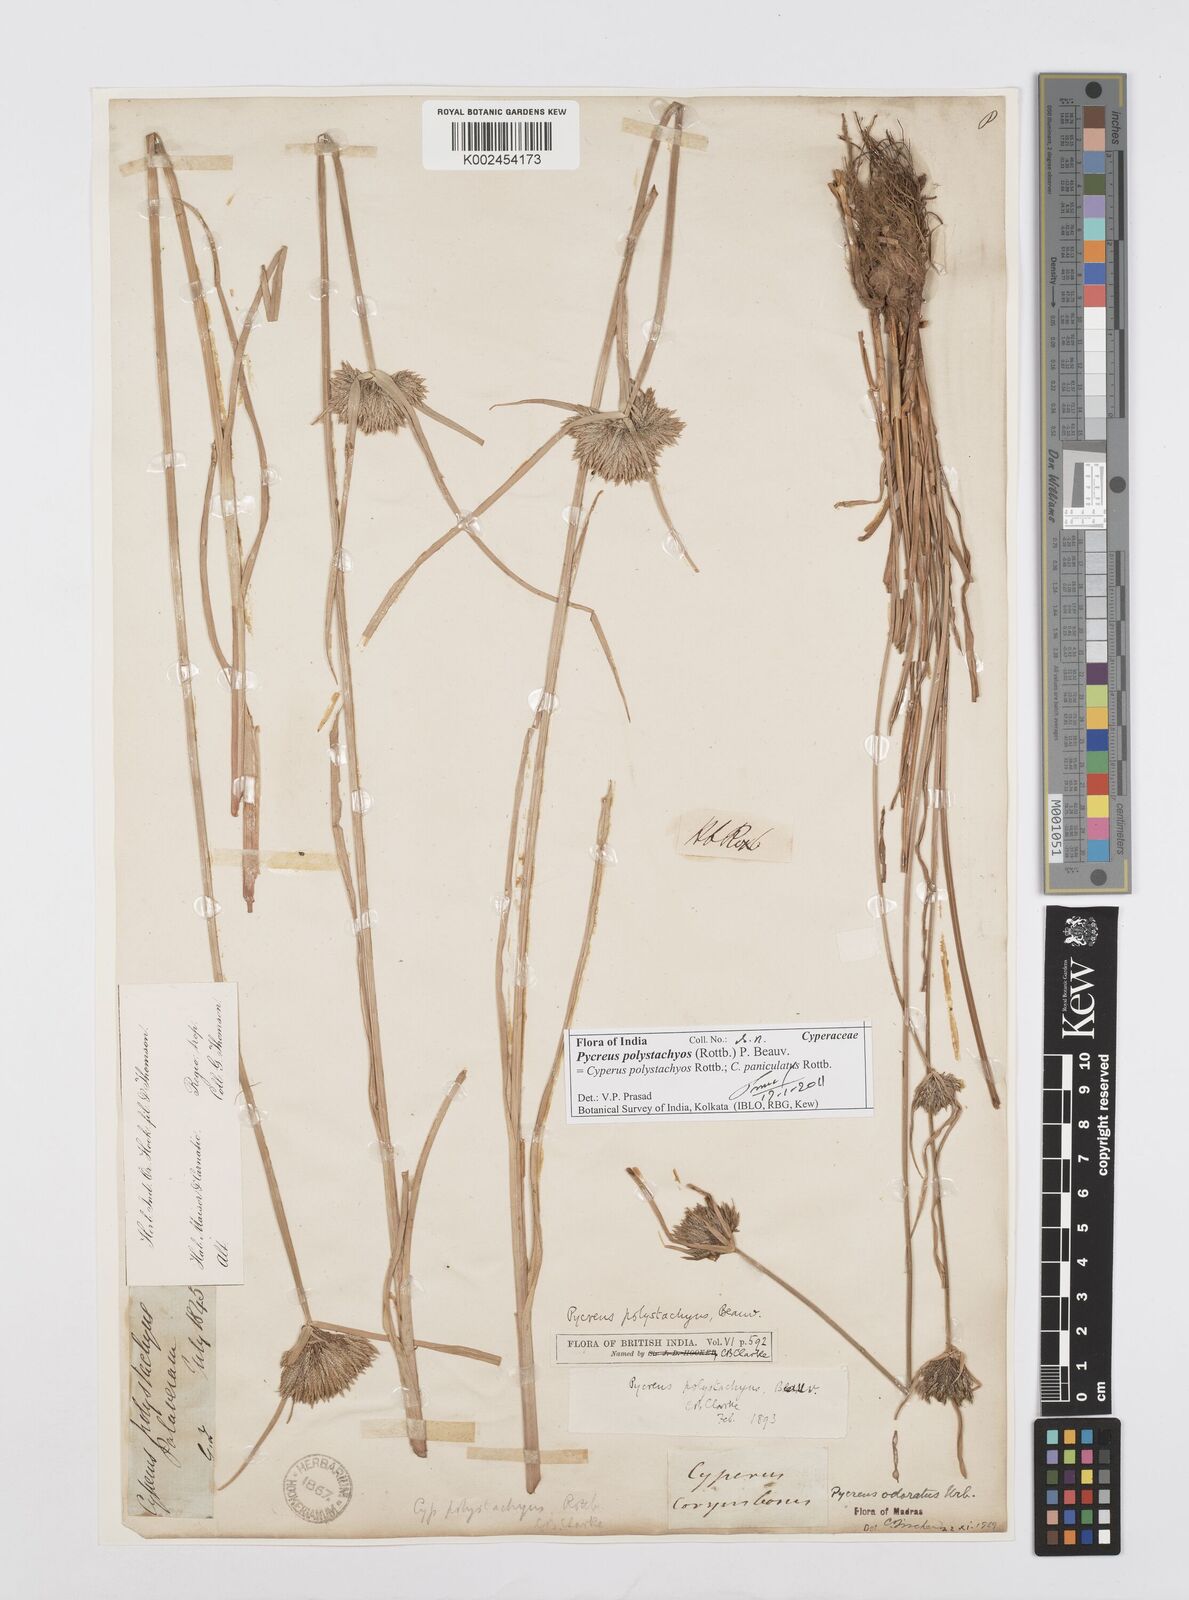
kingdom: Plantae
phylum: Tracheophyta
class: Liliopsida
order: Poales
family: Cyperaceae
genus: Cyperus
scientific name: Cyperus polystachyos
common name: Bunchy flat sedge
